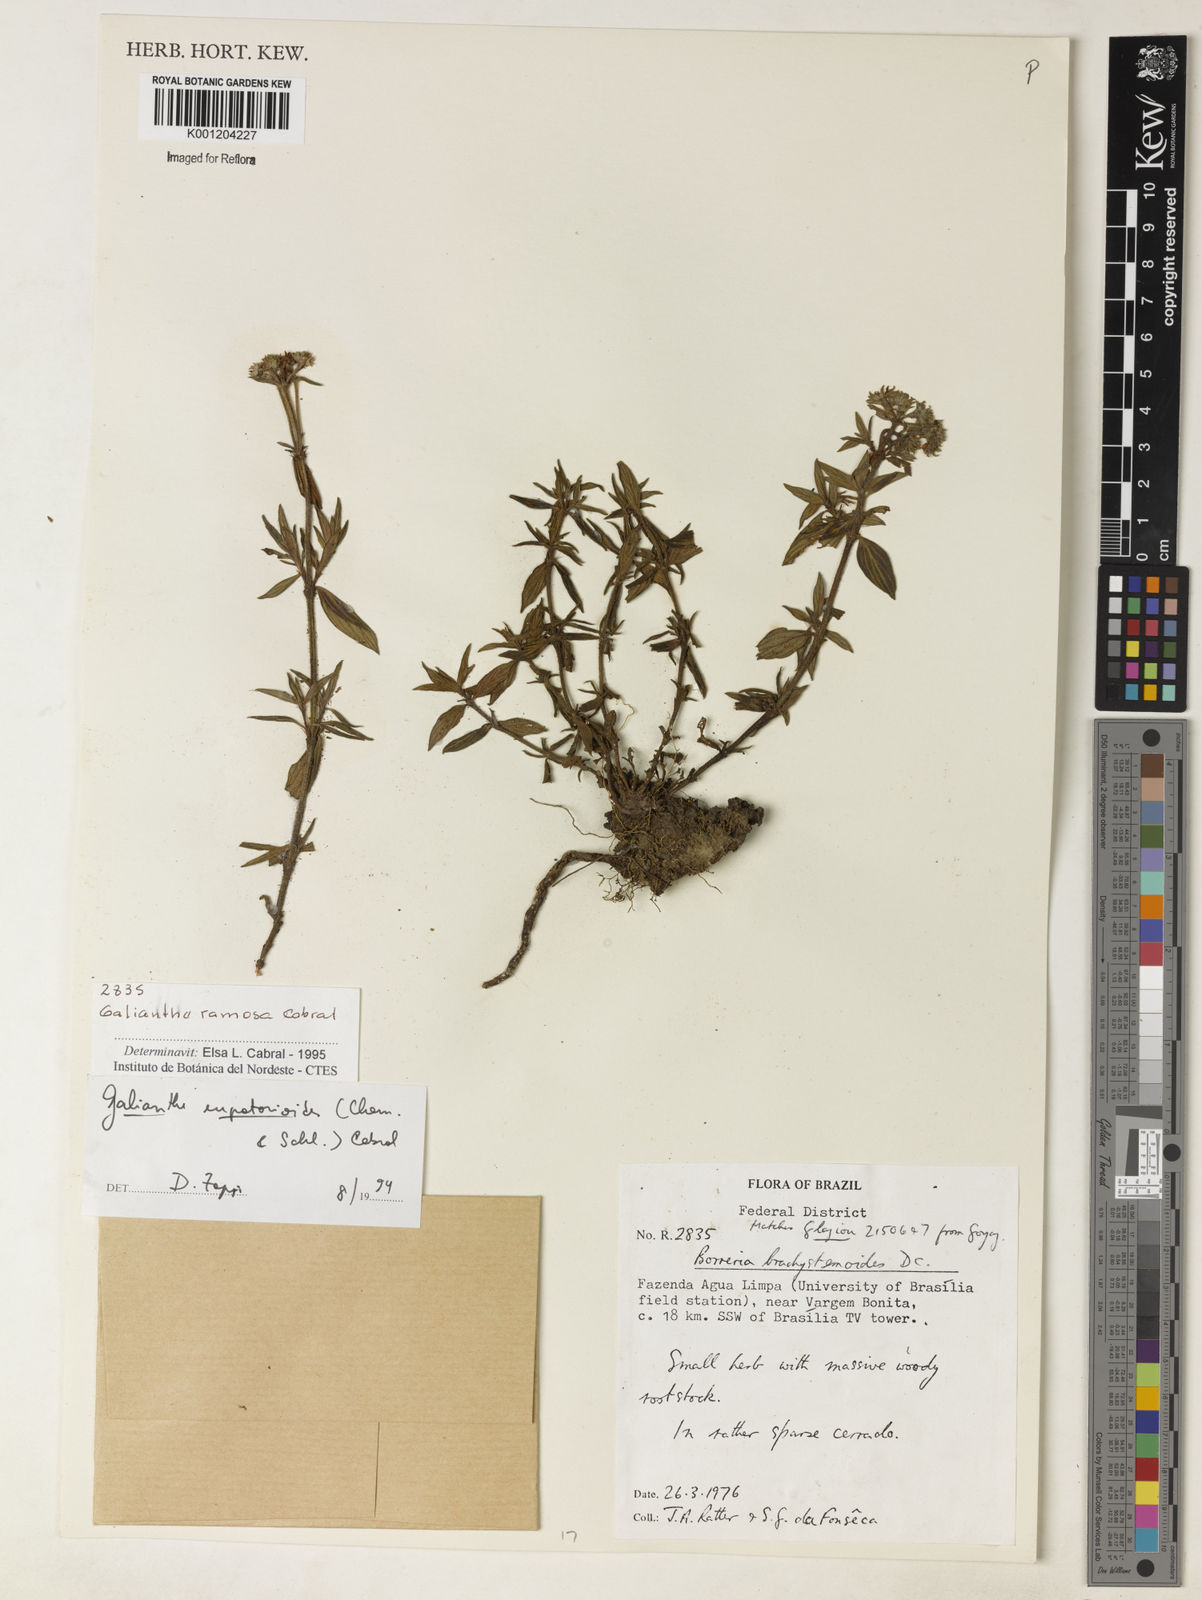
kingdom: Plantae
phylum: Tracheophyta
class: Magnoliopsida
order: Gentianales
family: Rubiaceae
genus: Galianthe
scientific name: Galianthe ramosa
